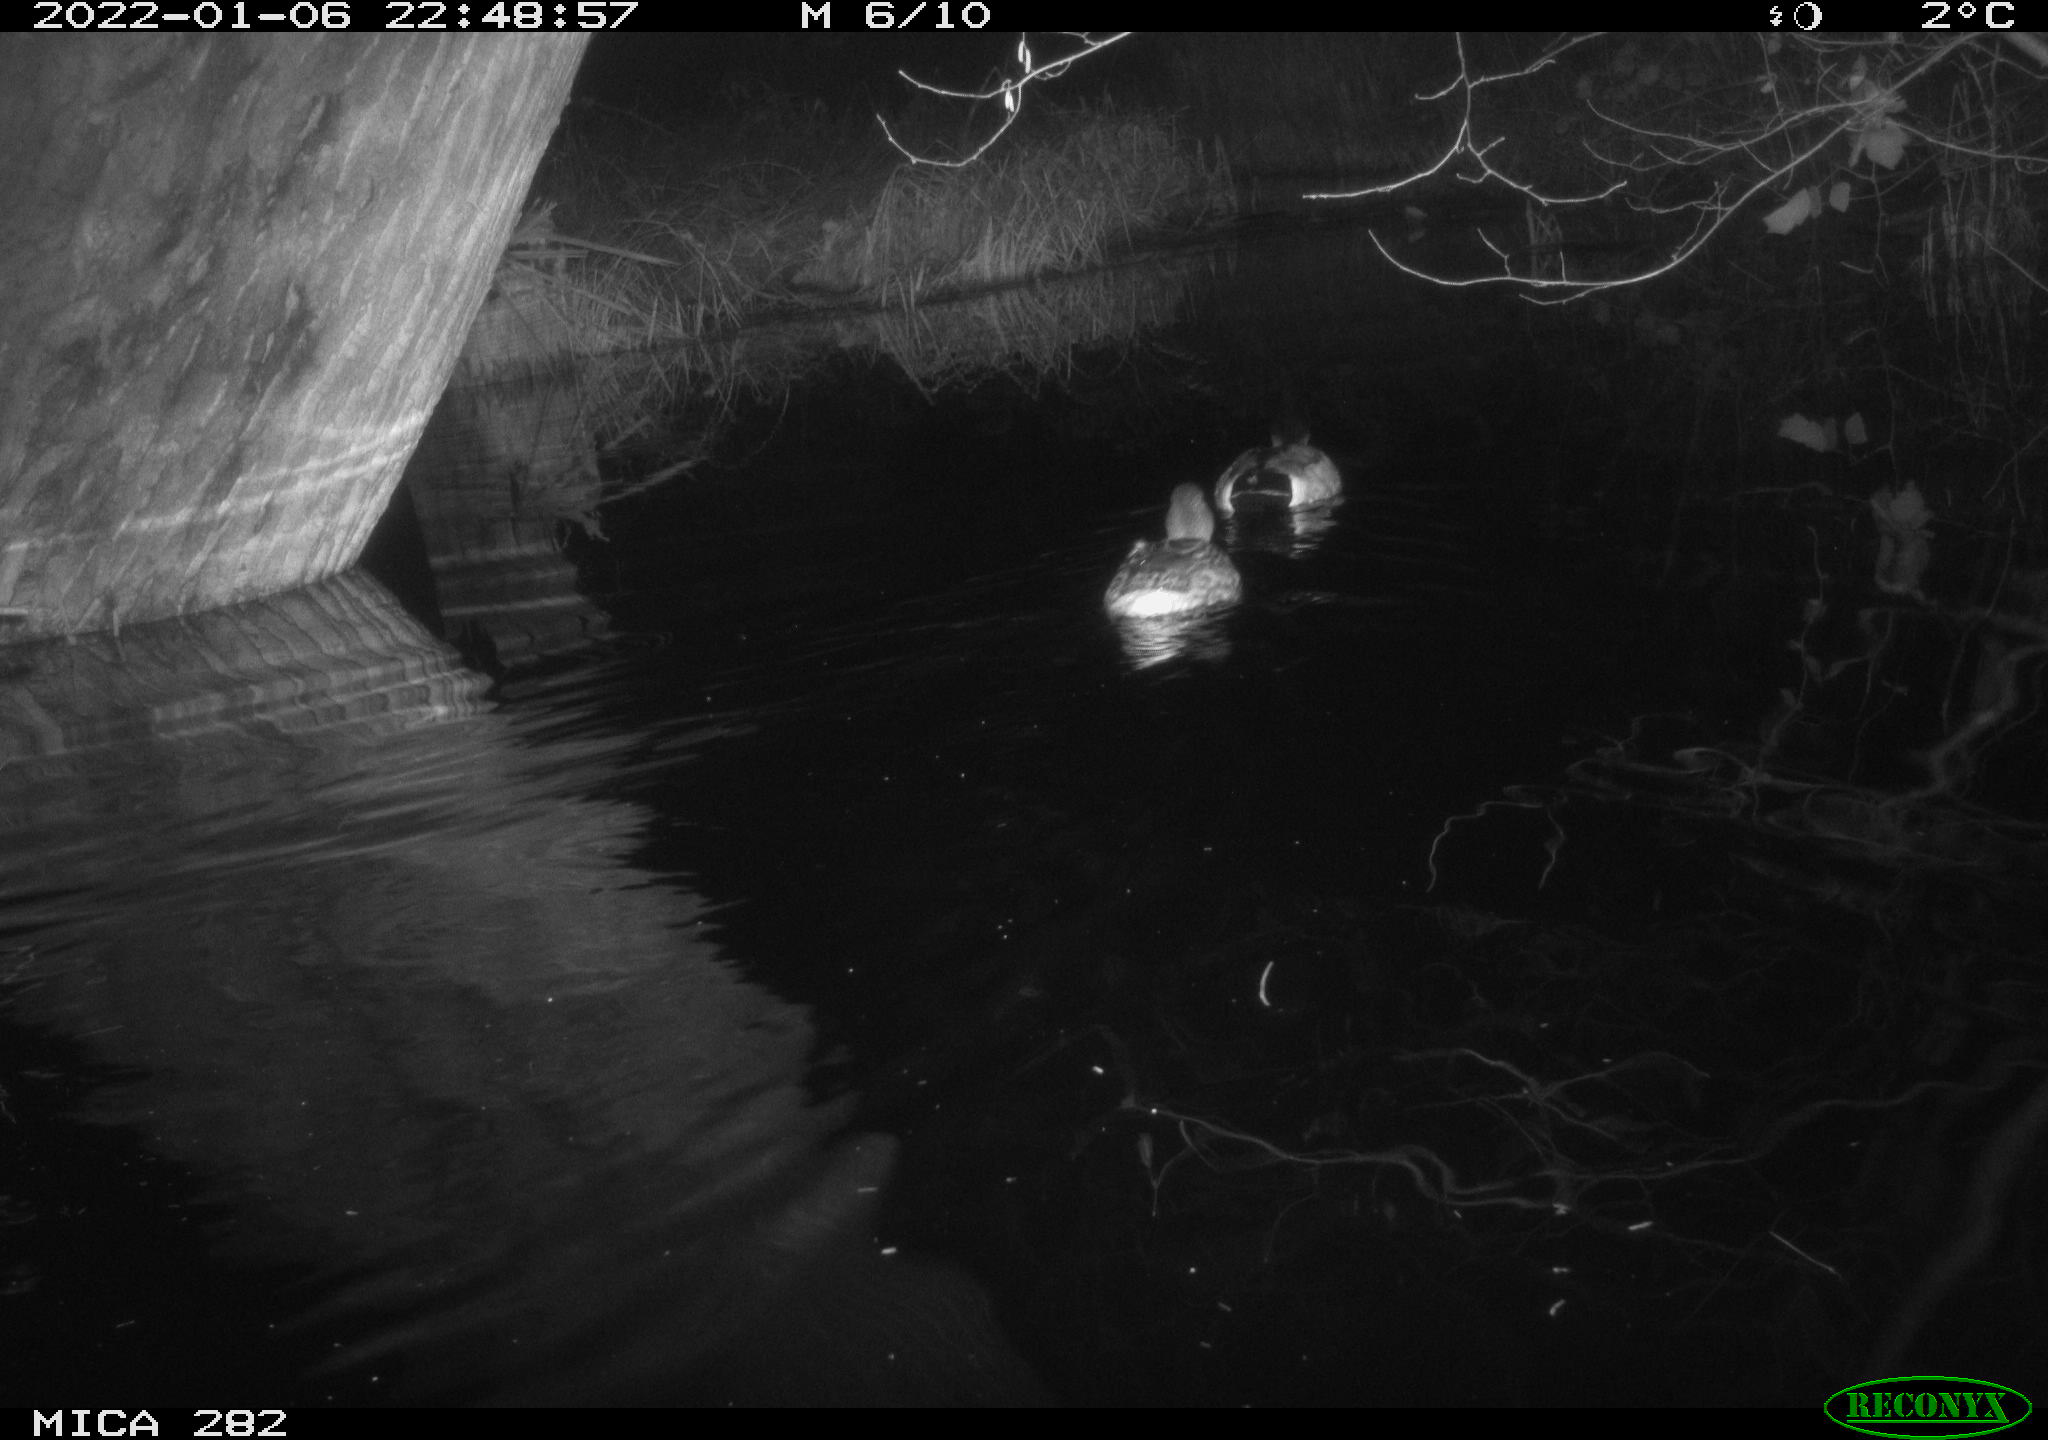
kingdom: Animalia
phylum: Chordata
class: Aves
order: Anseriformes
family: Anatidae
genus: Anas
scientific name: Anas platyrhynchos
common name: Mallard
